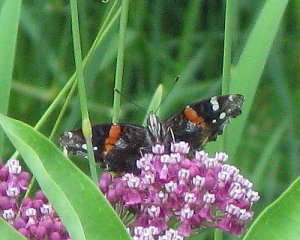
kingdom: Animalia
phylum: Arthropoda
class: Insecta
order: Lepidoptera
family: Nymphalidae
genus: Vanessa
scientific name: Vanessa atalanta
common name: Red Admiral
